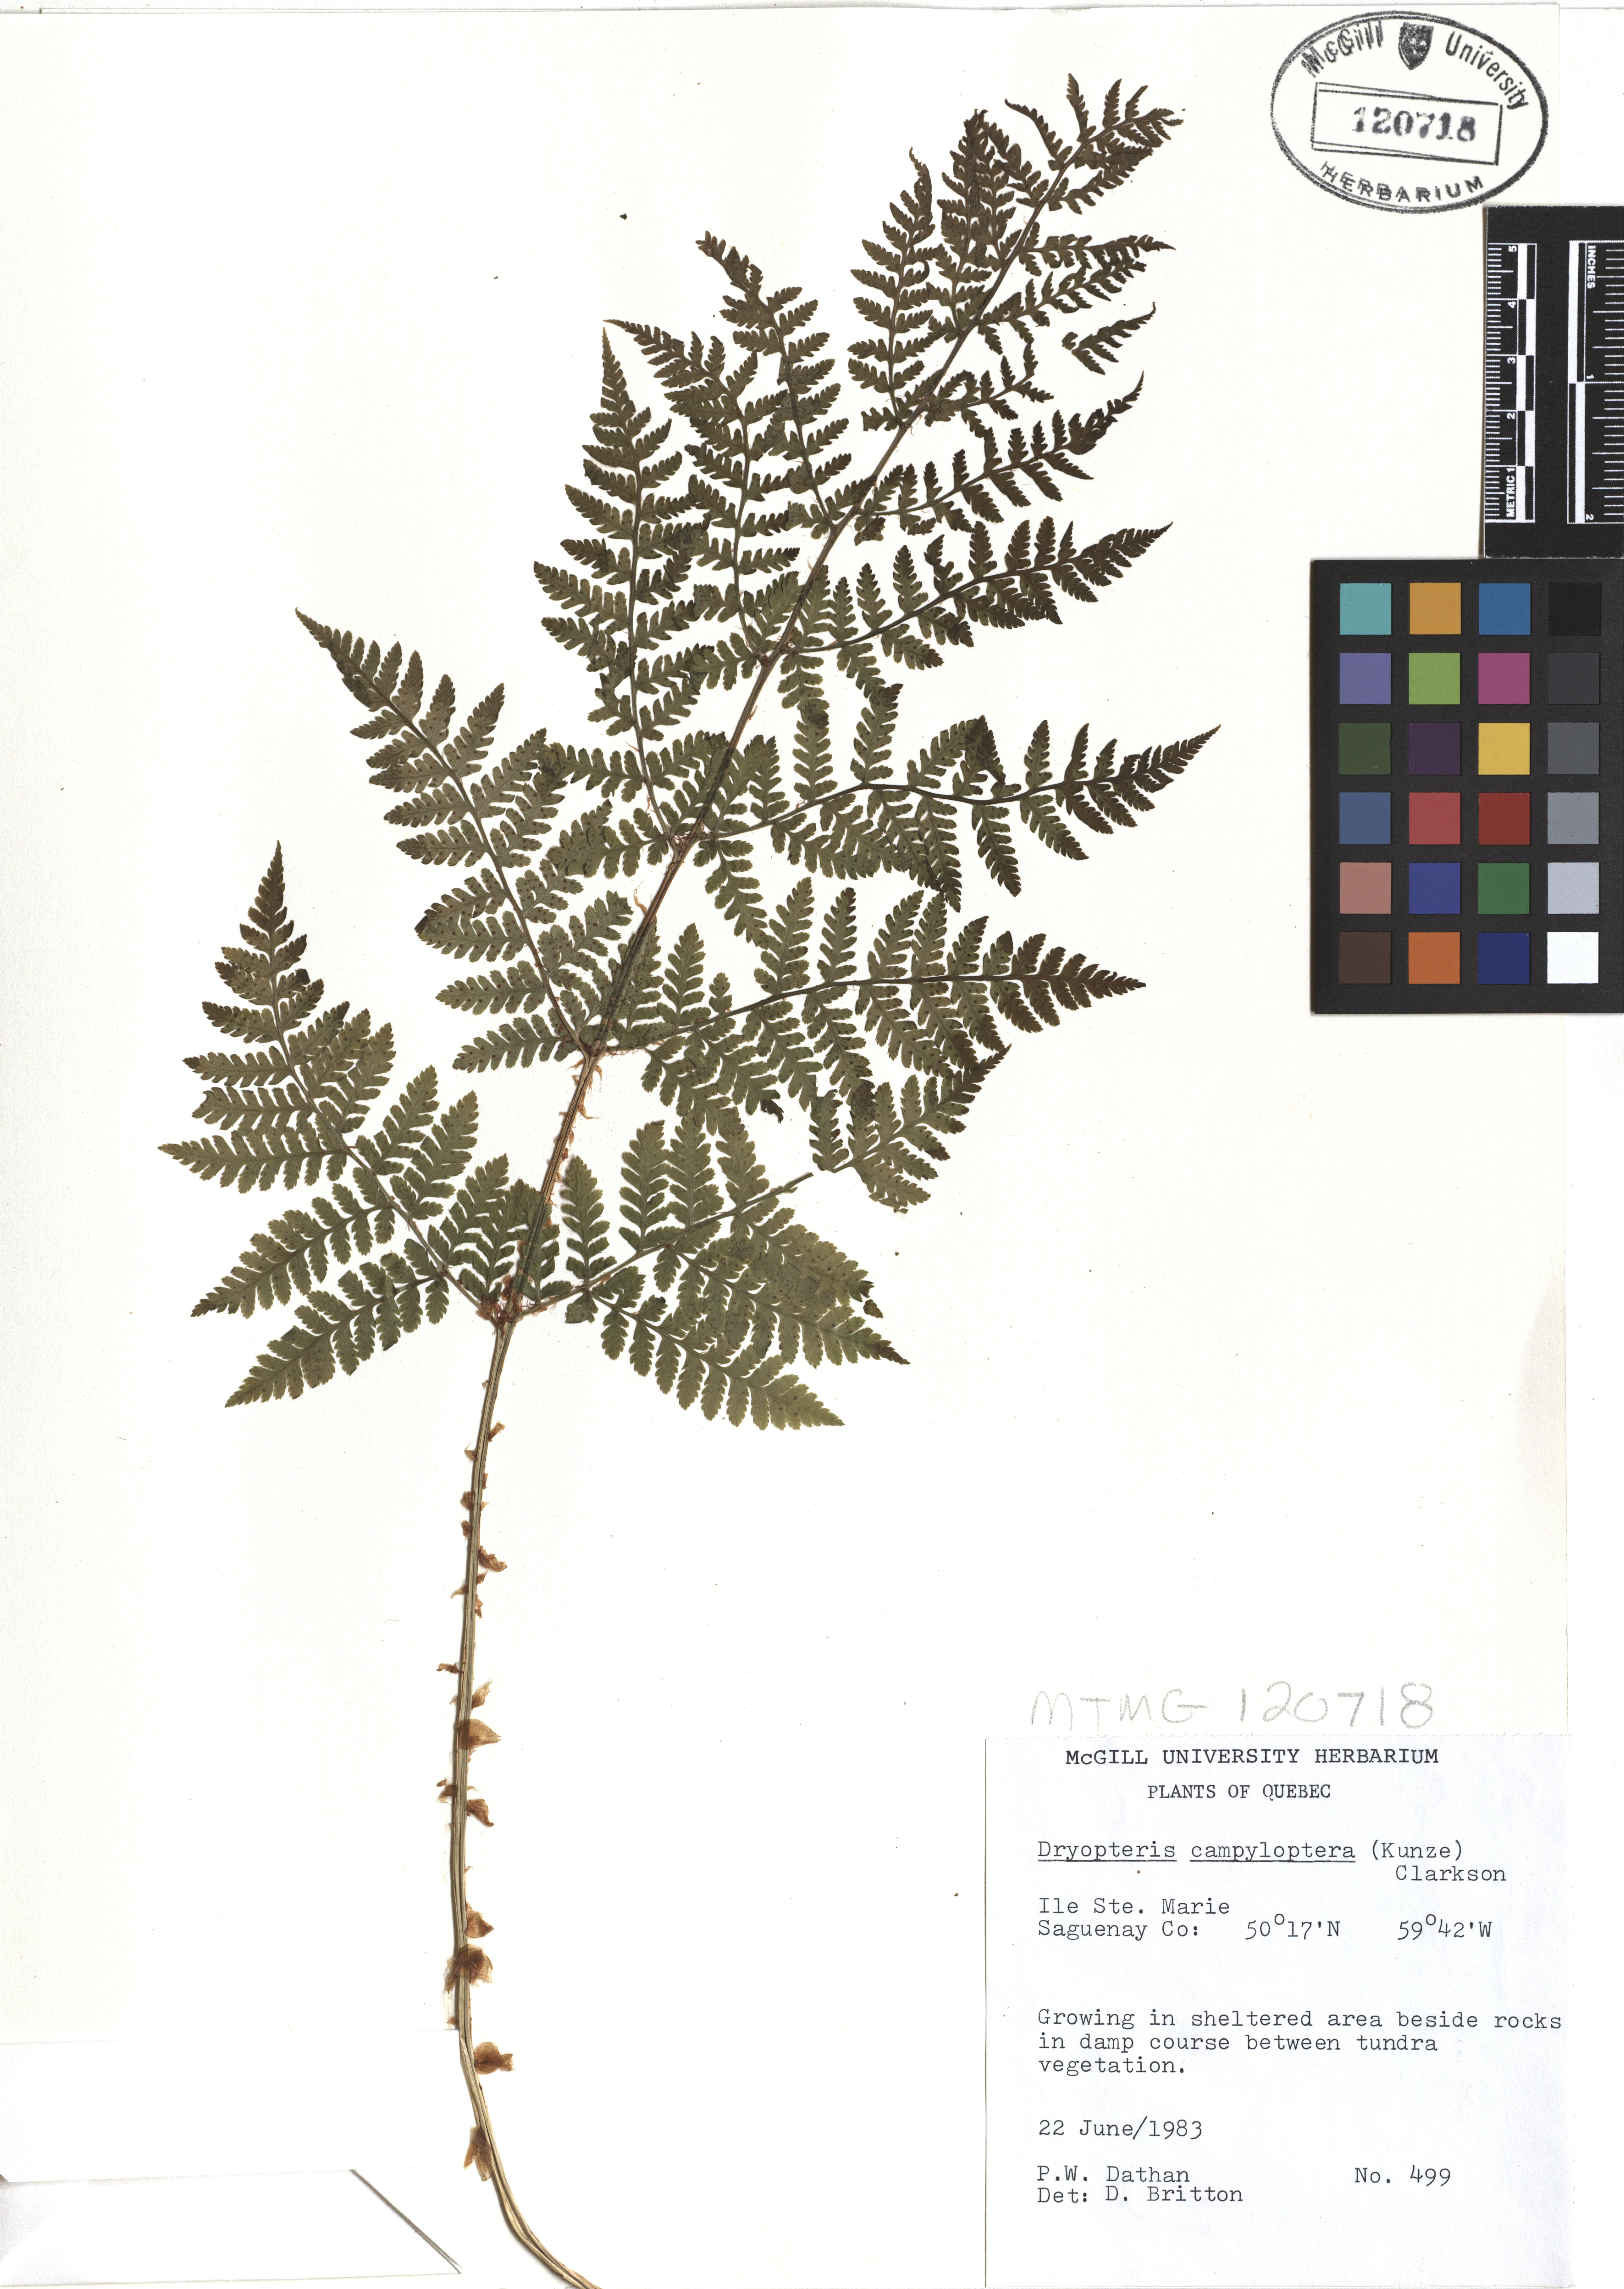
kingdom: Plantae
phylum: Tracheophyta
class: Polypodiopsida
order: Polypodiales
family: Dryopteridaceae
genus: Dryopteris
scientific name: Dryopteris campyloptera
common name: Mountain wood fern
